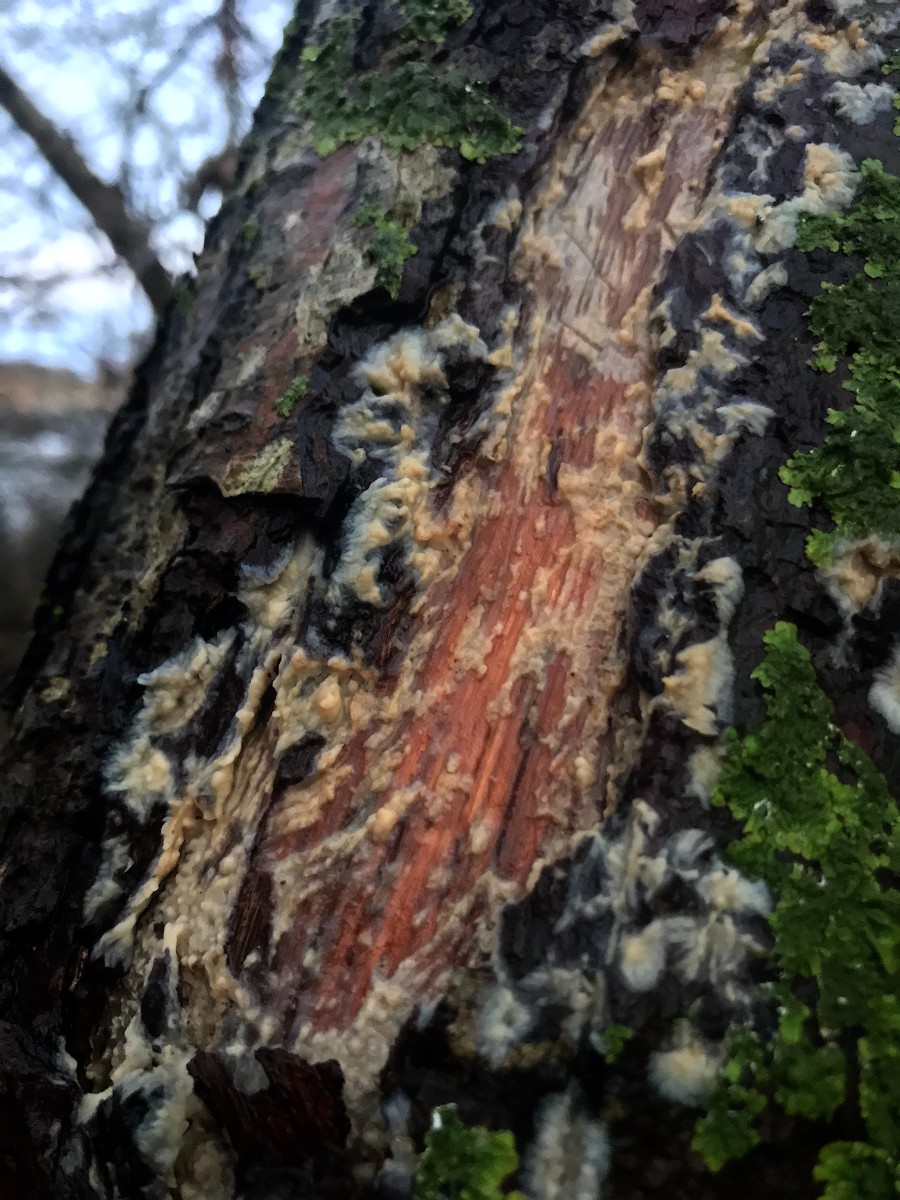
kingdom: Fungi
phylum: Basidiomycota
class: Agaricomycetes
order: Corticiales
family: Corticiaceae
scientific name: Corticiaceae
